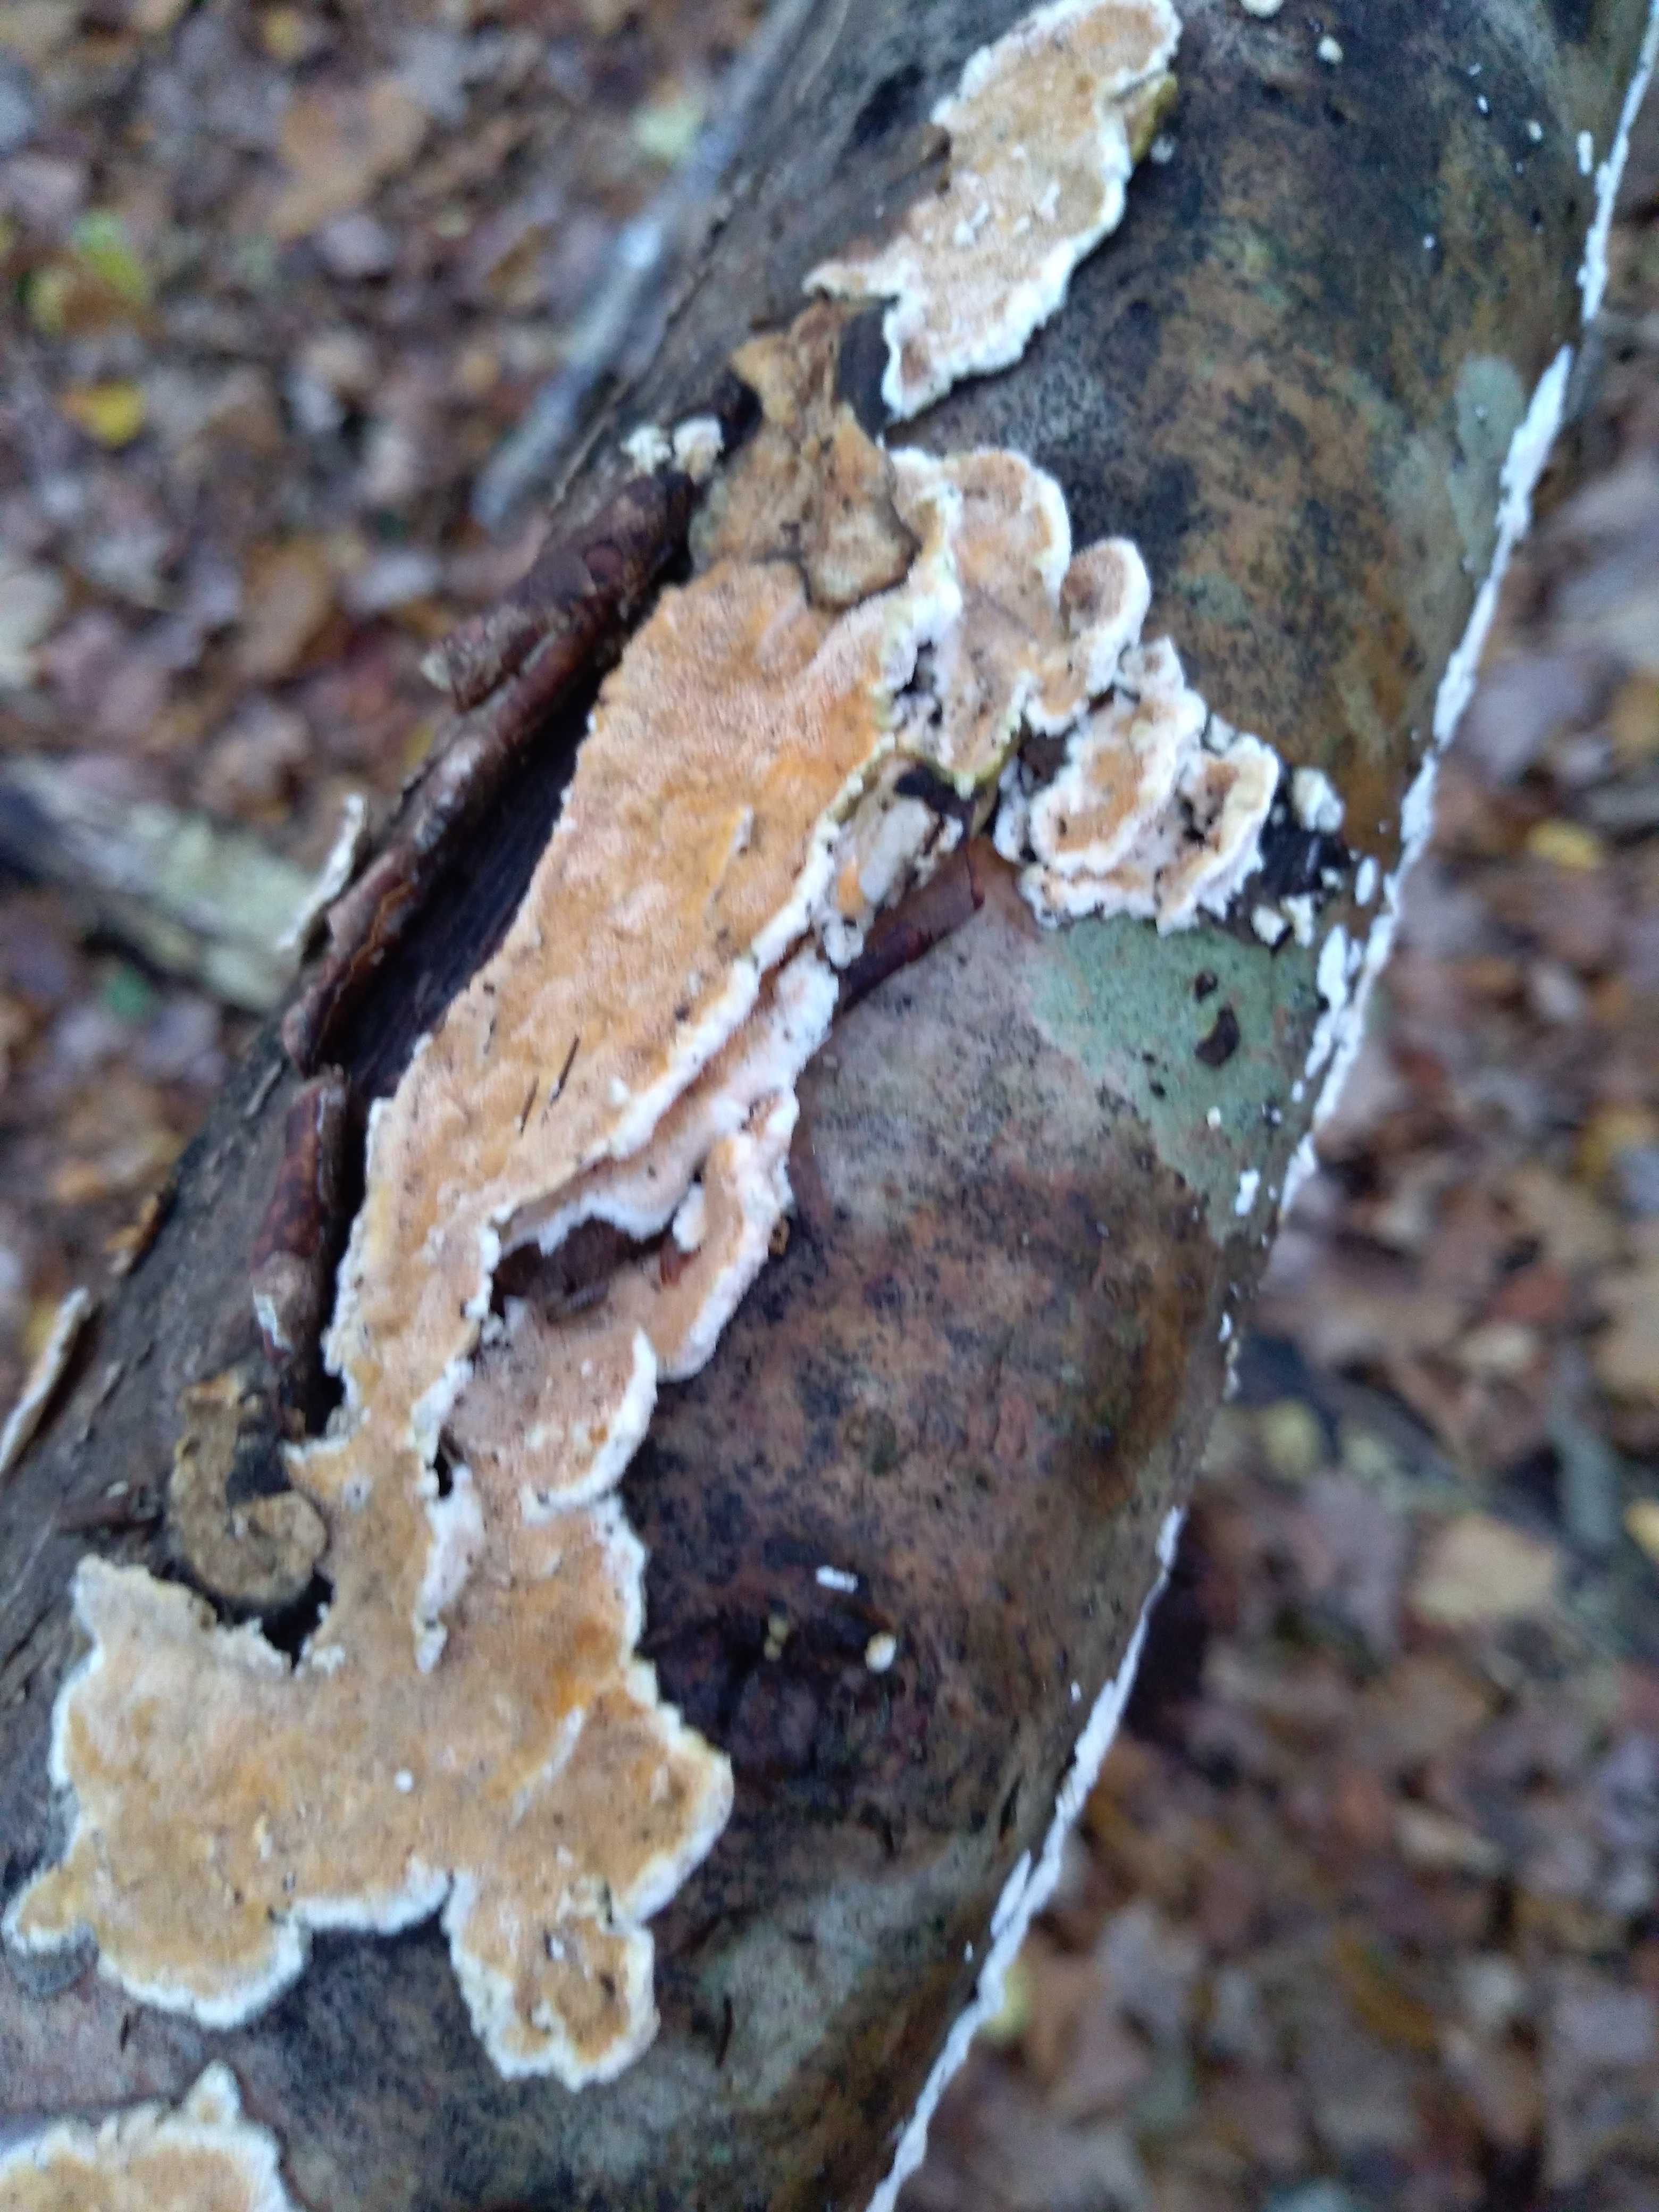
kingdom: Fungi
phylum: Basidiomycota
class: Agaricomycetes
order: Polyporales
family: Steccherinaceae
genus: Steccherinum
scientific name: Steccherinum ochraceum
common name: almindelig skønpig
